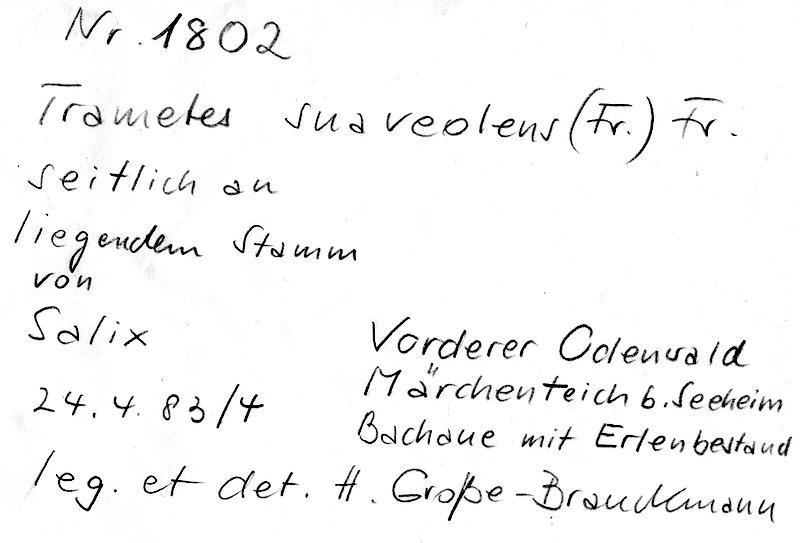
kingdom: Plantae
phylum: Tracheophyta
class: Magnoliopsida
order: Malpighiales
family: Salicaceae
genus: Salix
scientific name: Salix alba
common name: White willow
